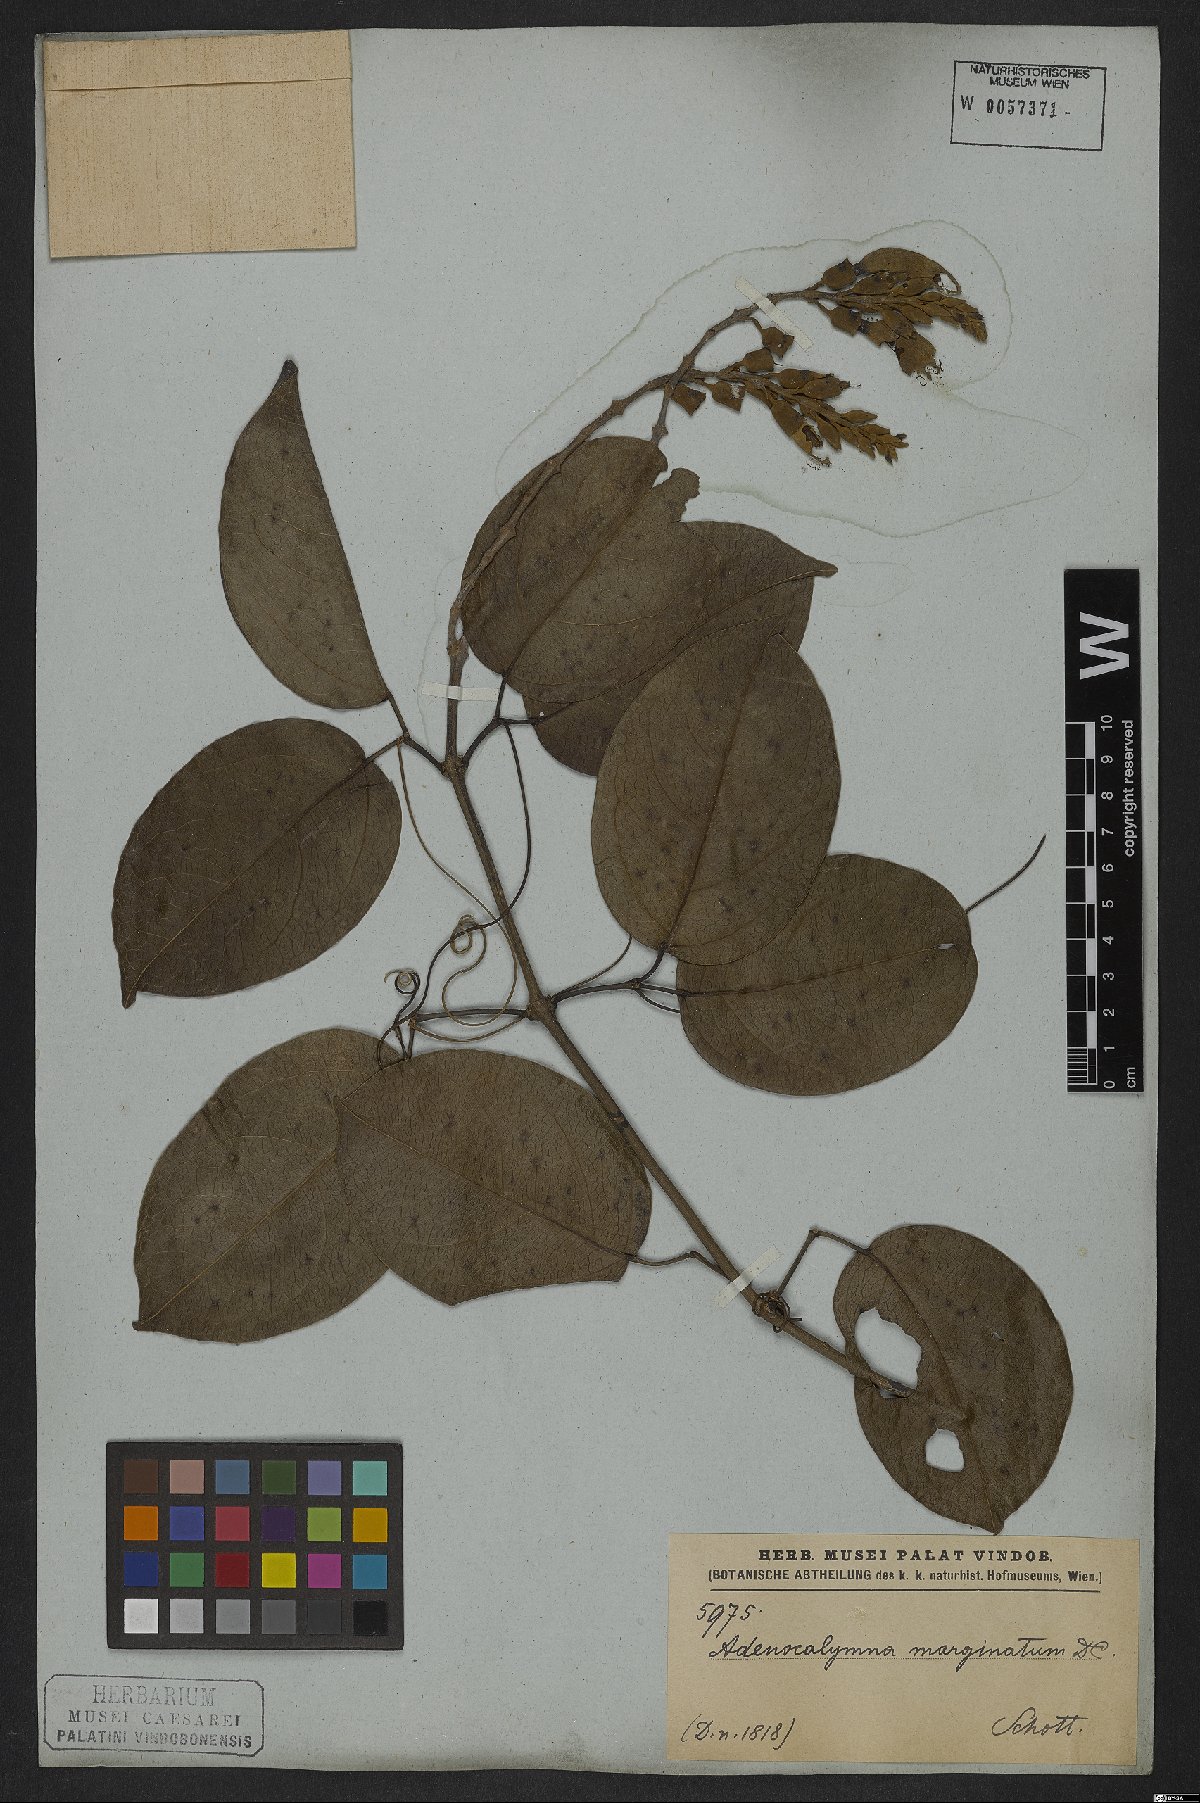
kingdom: Plantae
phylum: Tracheophyta
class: Magnoliopsida
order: Lamiales
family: Bignoniaceae
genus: Adenocalymma
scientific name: Adenocalymma marginatum
